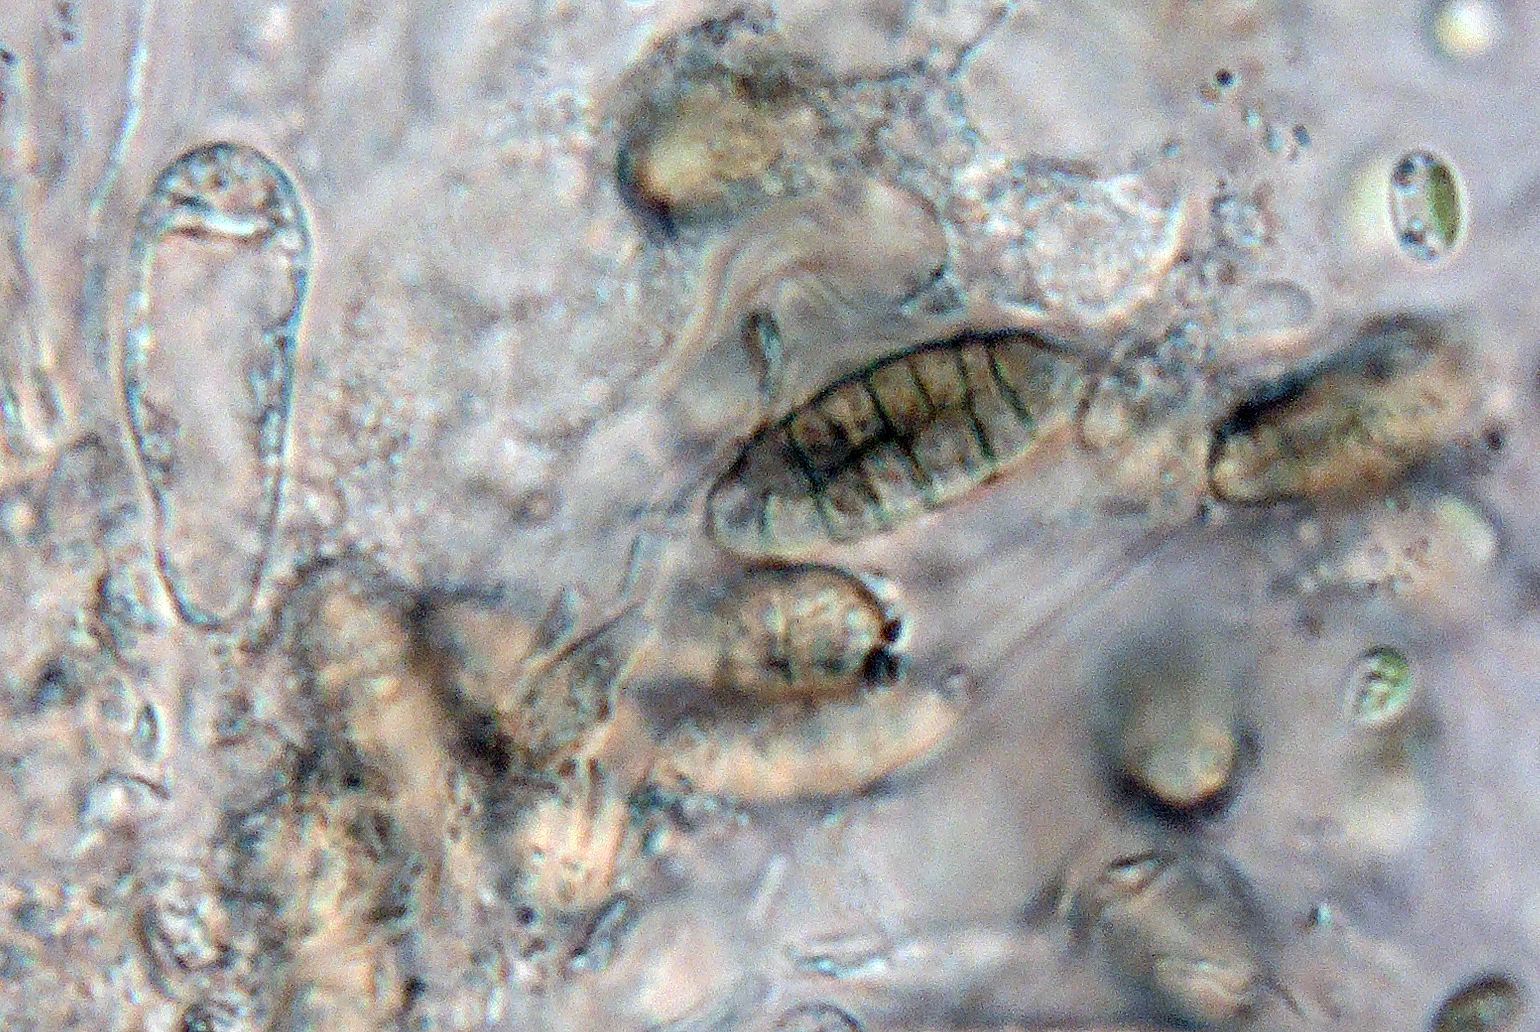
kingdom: Fungi
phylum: Ascomycota
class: Eurotiomycetes
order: Chaetothyriales
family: Herpotrichiellaceae
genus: Capronia
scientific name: Capronia chlorospora
